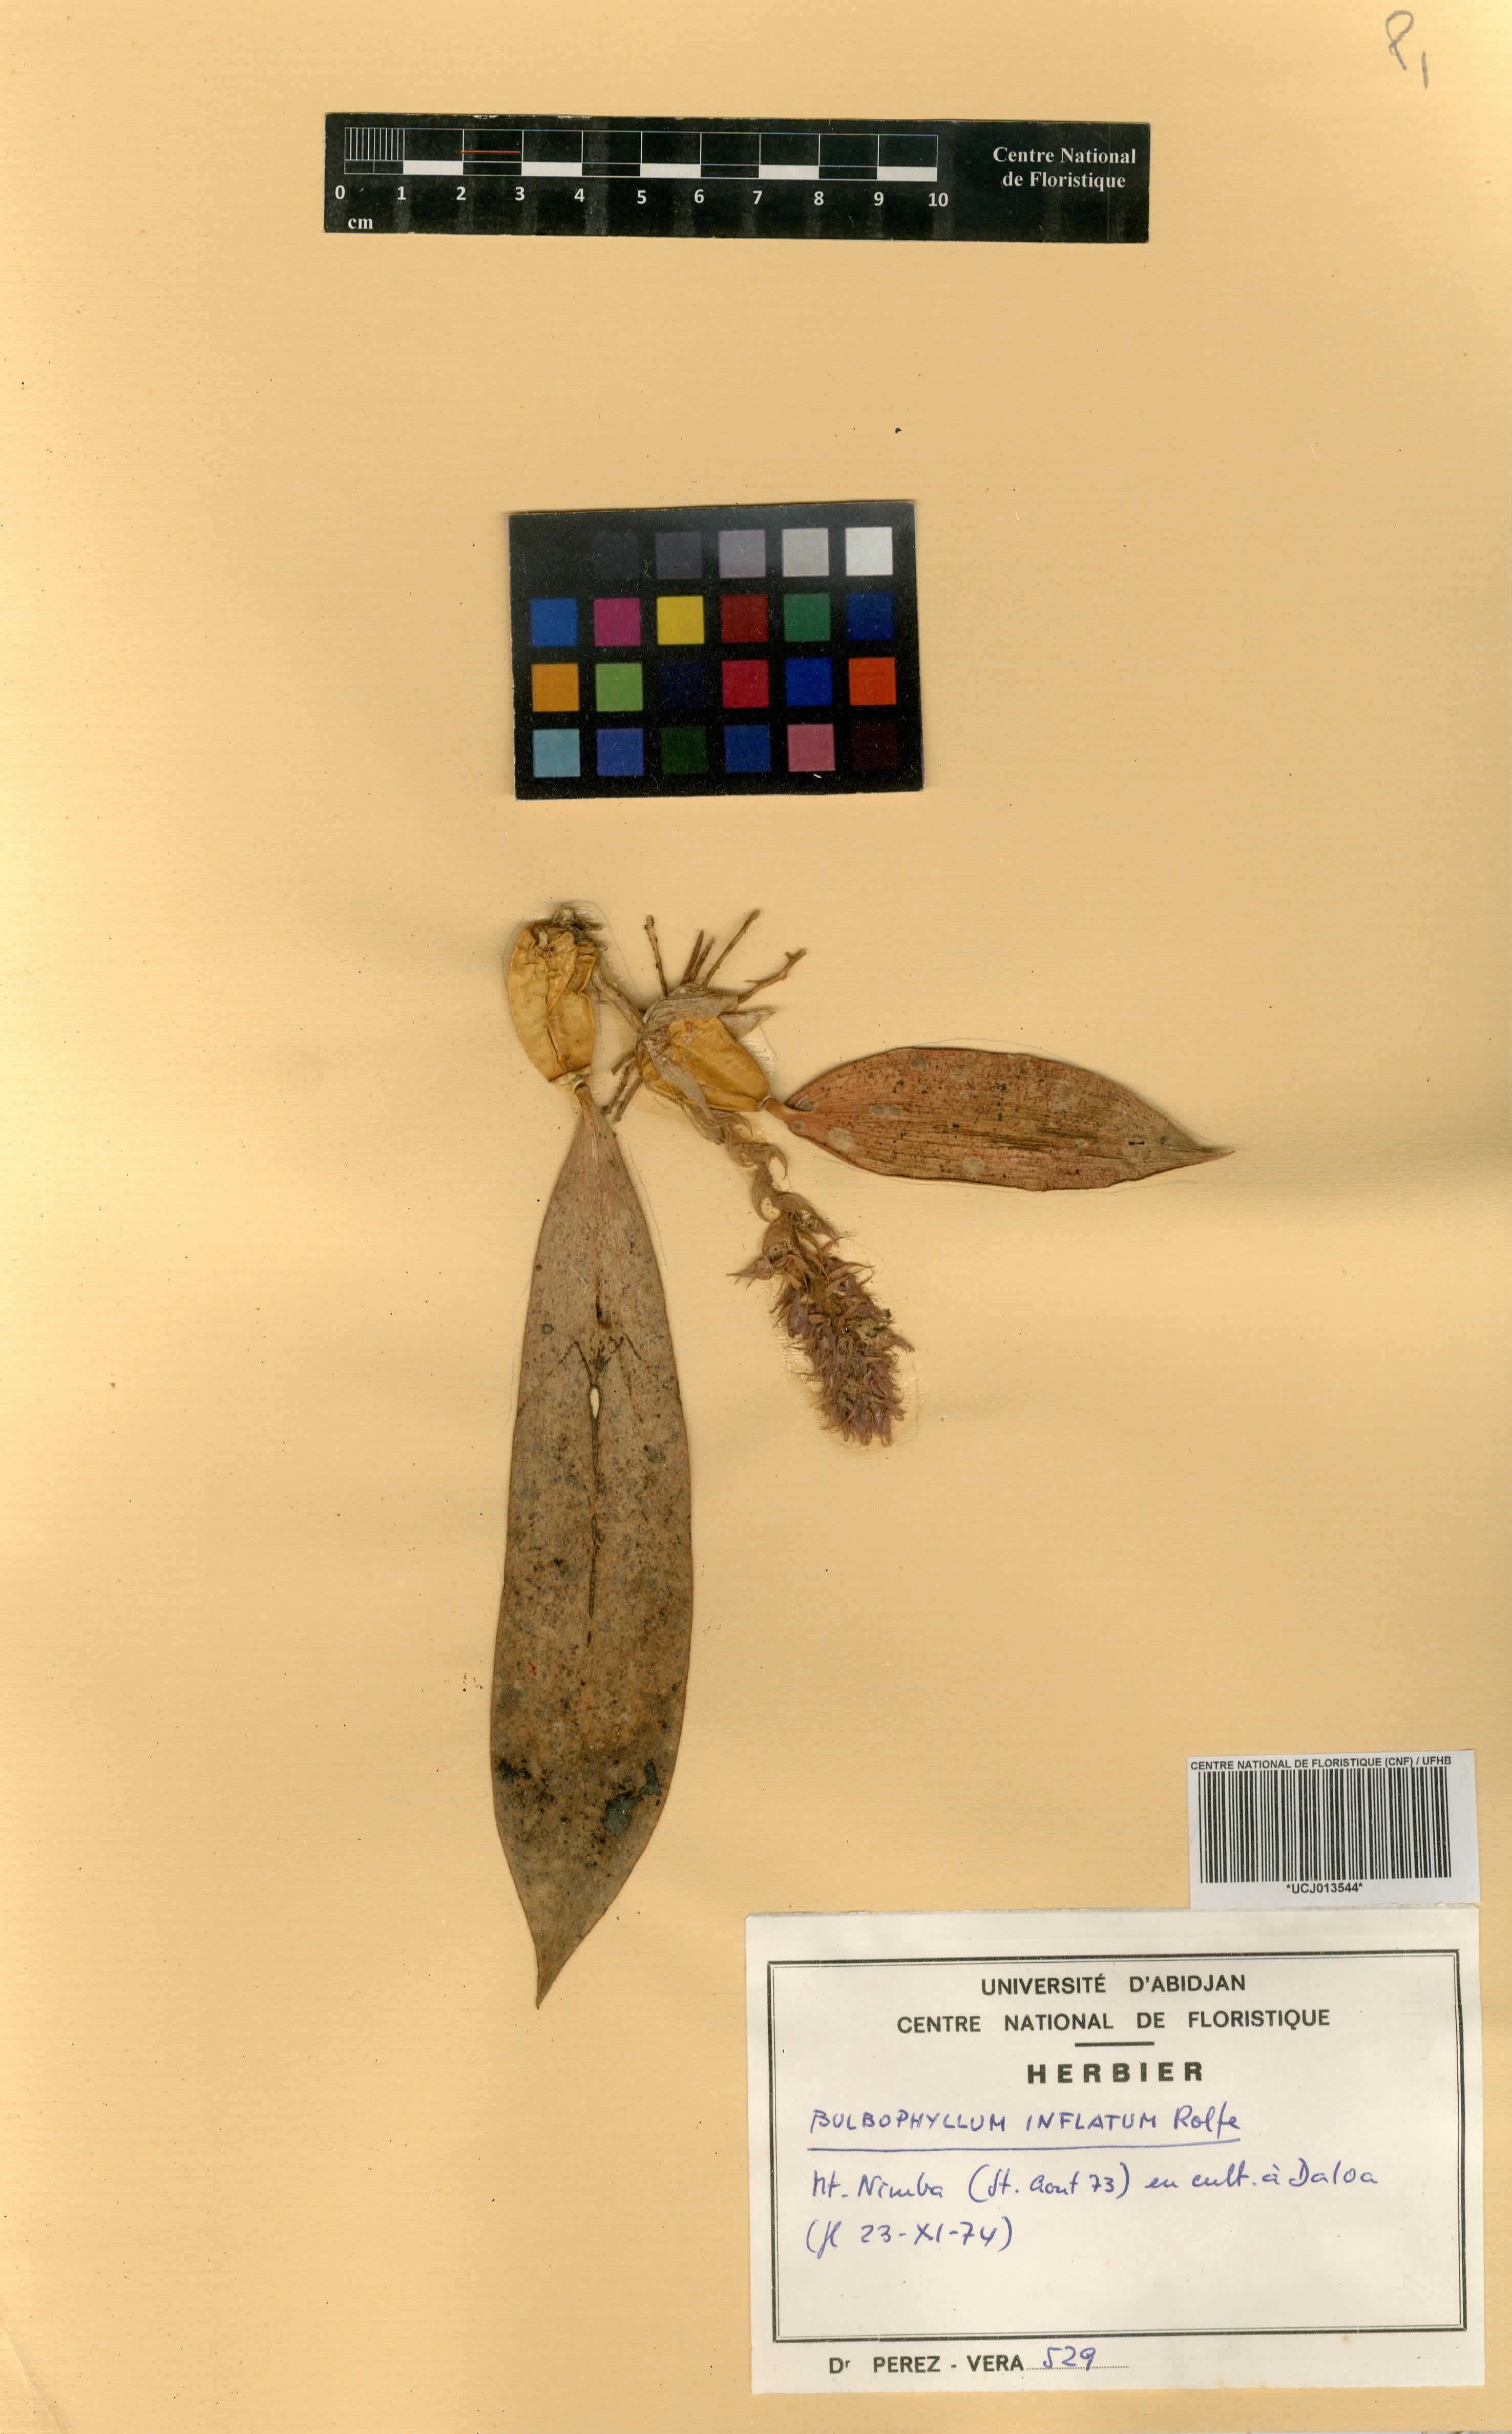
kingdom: Plantae
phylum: Tracheophyta
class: Liliopsida
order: Asparagales
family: Orchidaceae
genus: Bulbophyllum
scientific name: Bulbophyllum comatum
